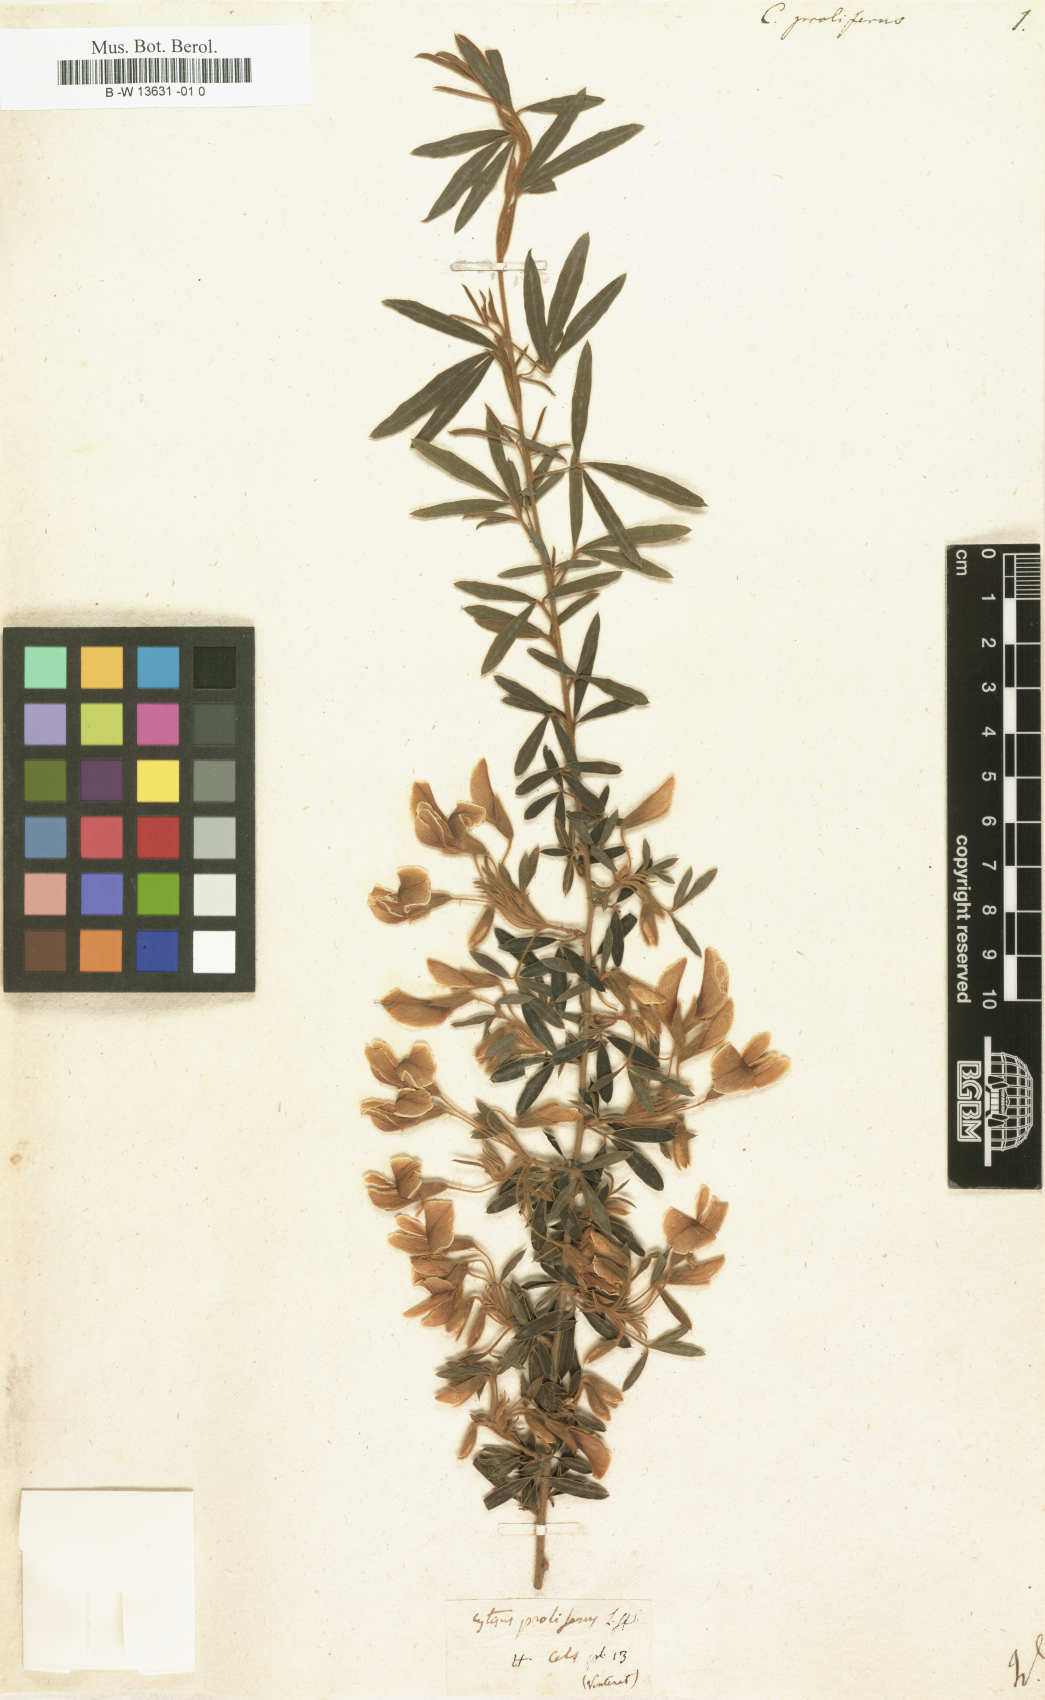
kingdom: Plantae
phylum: Tracheophyta
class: Magnoliopsida
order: Fabales
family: Fabaceae
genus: Cytisus
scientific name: Cytisus proliferus
